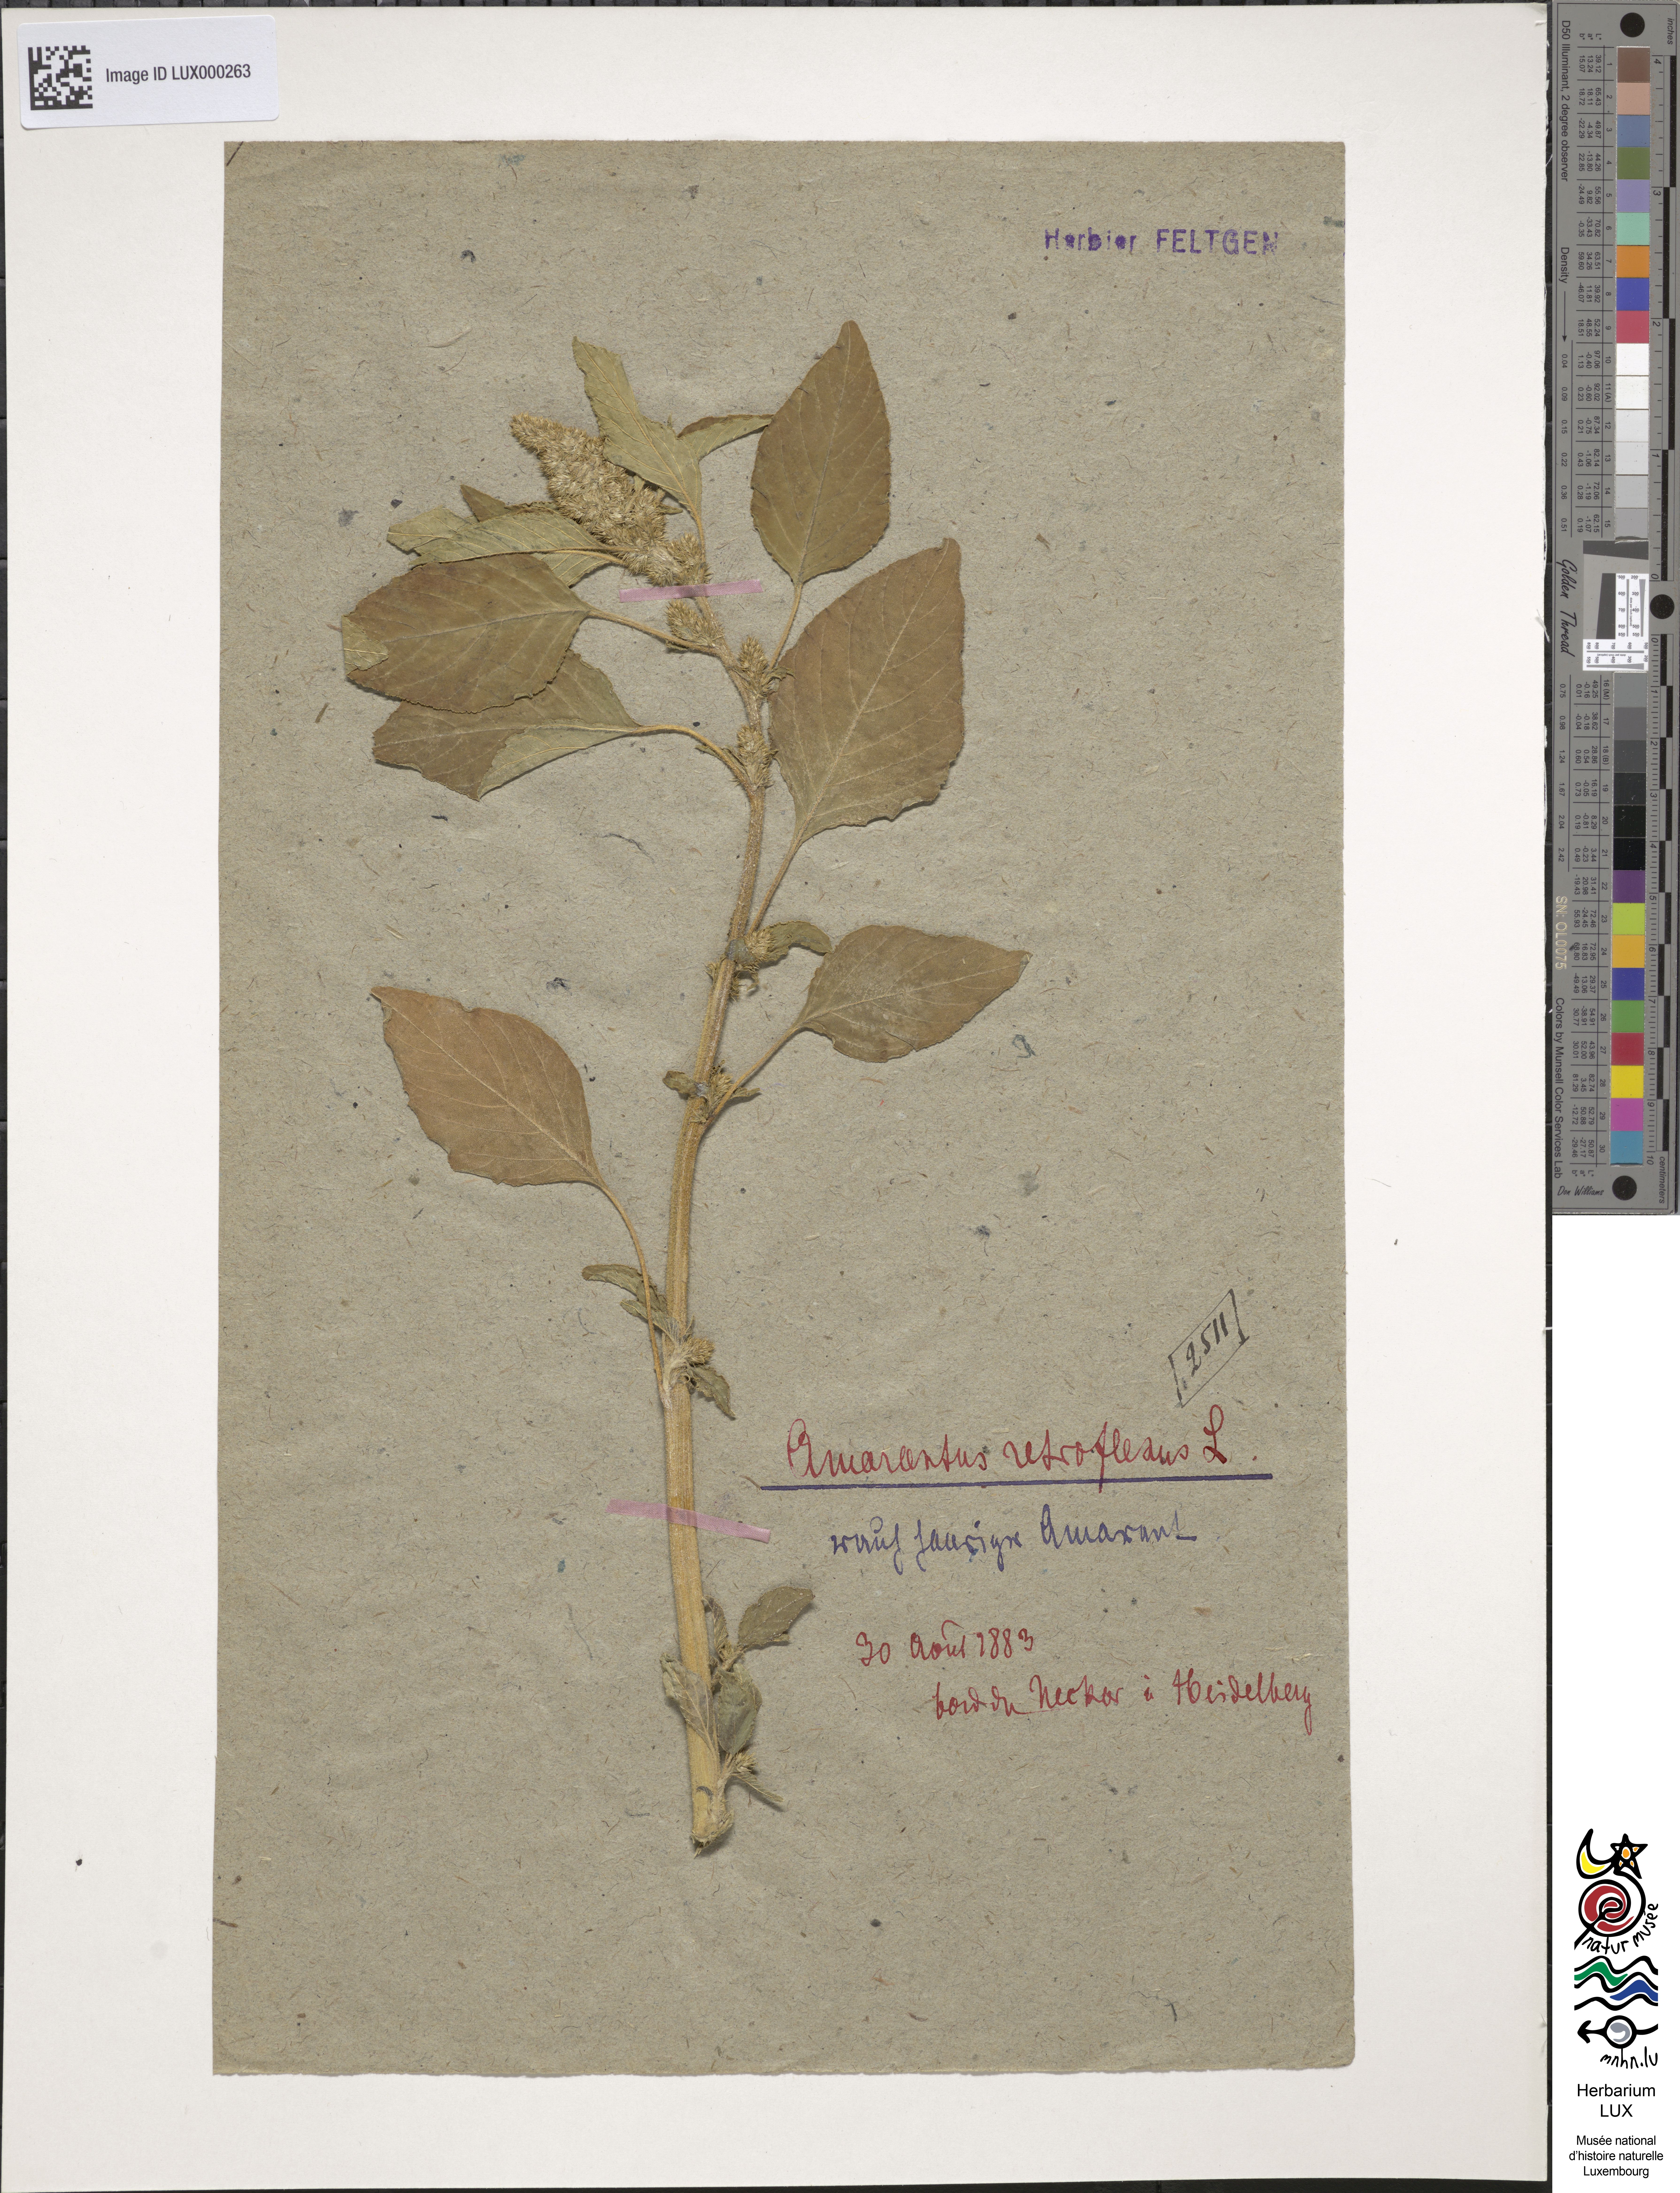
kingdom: Plantae
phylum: Tracheophyta
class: Magnoliopsida
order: Caryophyllales
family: Amaranthaceae
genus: Amaranthus
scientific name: Amaranthus retroflexus
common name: Redroot amaranth
